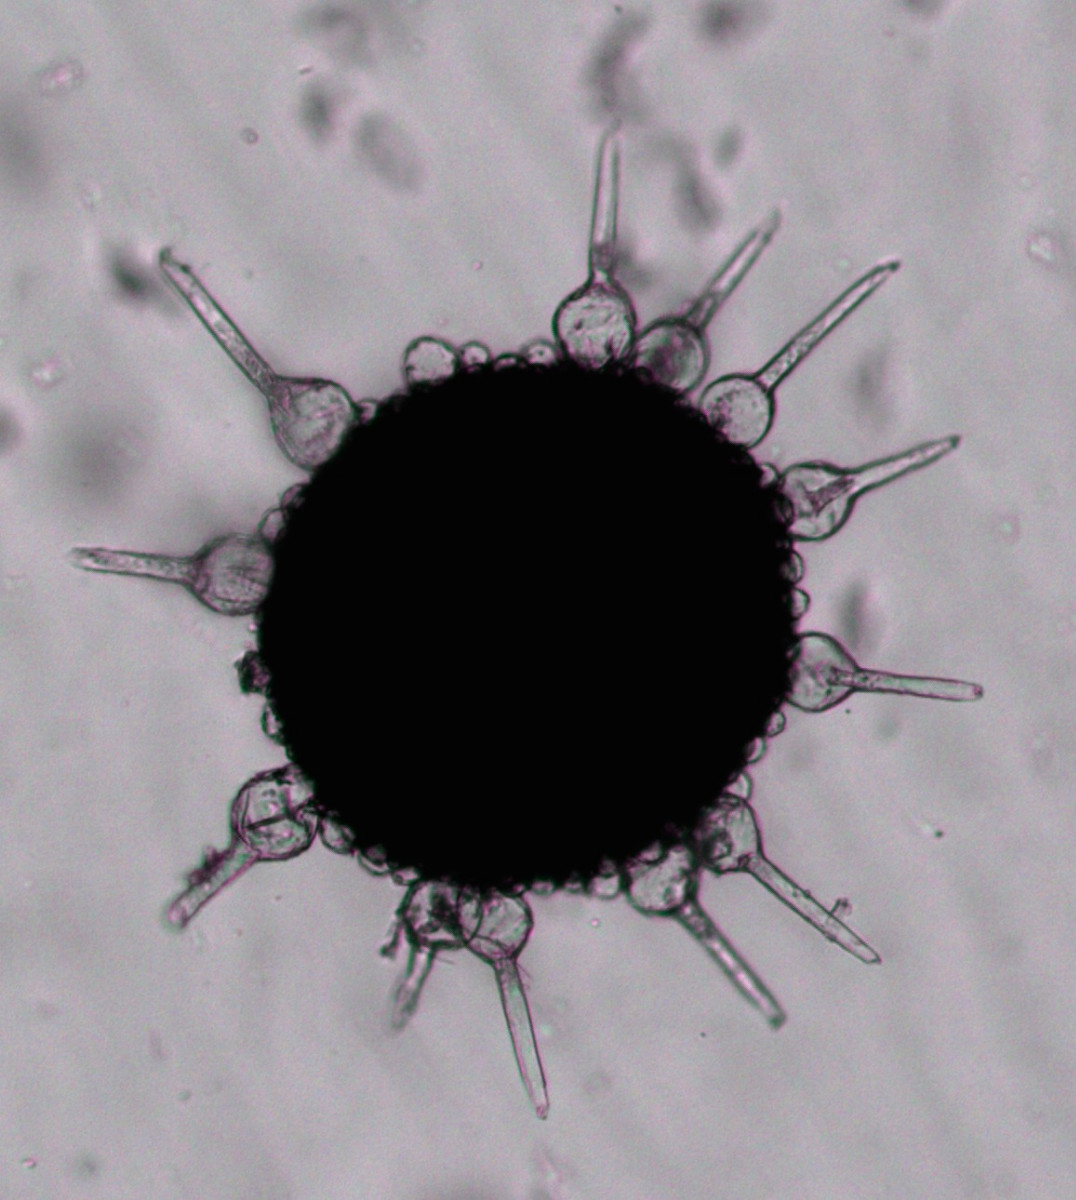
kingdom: Fungi
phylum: Ascomycota
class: Leotiomycetes
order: Helotiales
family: Erysiphaceae
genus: Phyllactinia
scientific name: Phyllactinia orbicularis
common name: bøge-meldug
